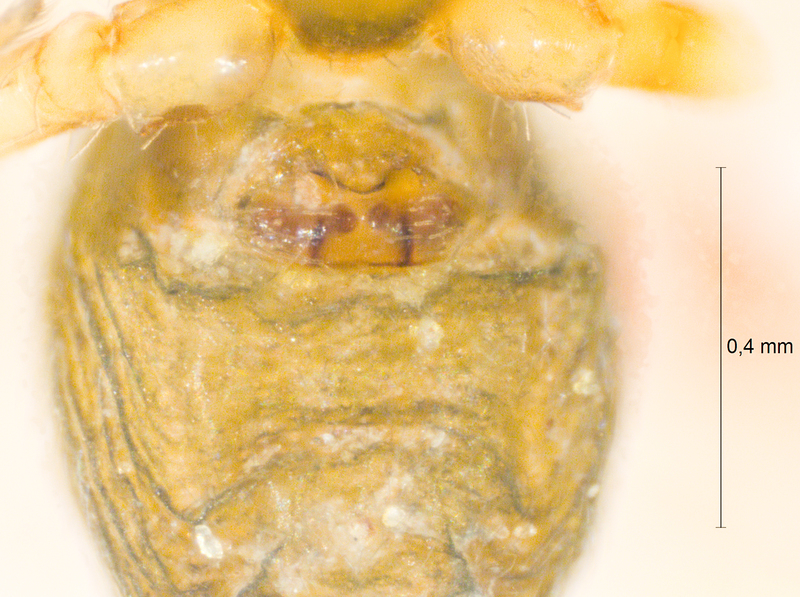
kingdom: Animalia
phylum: Arthropoda
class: Arachnida
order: Araneae
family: Linyphiidae
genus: Micrargus
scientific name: Micrargus subaequalis
